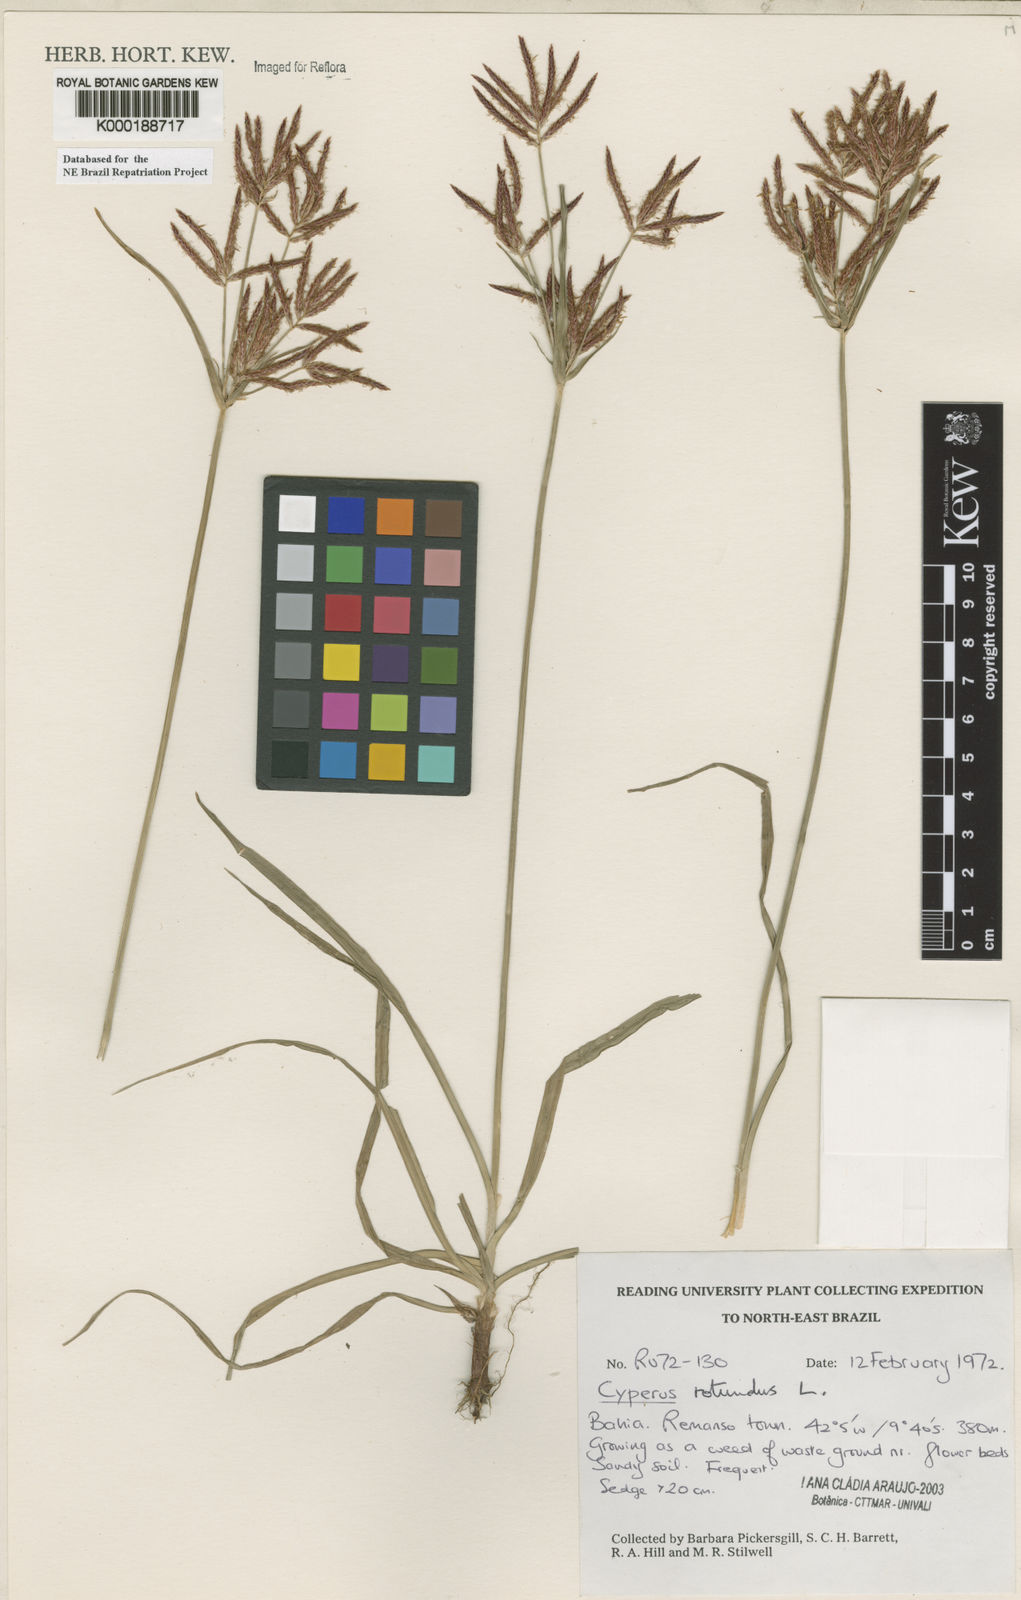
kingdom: Plantae
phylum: Tracheophyta
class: Liliopsida
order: Poales
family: Cyperaceae
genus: Cyperus
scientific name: Cyperus rotundus
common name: Nutgrass
